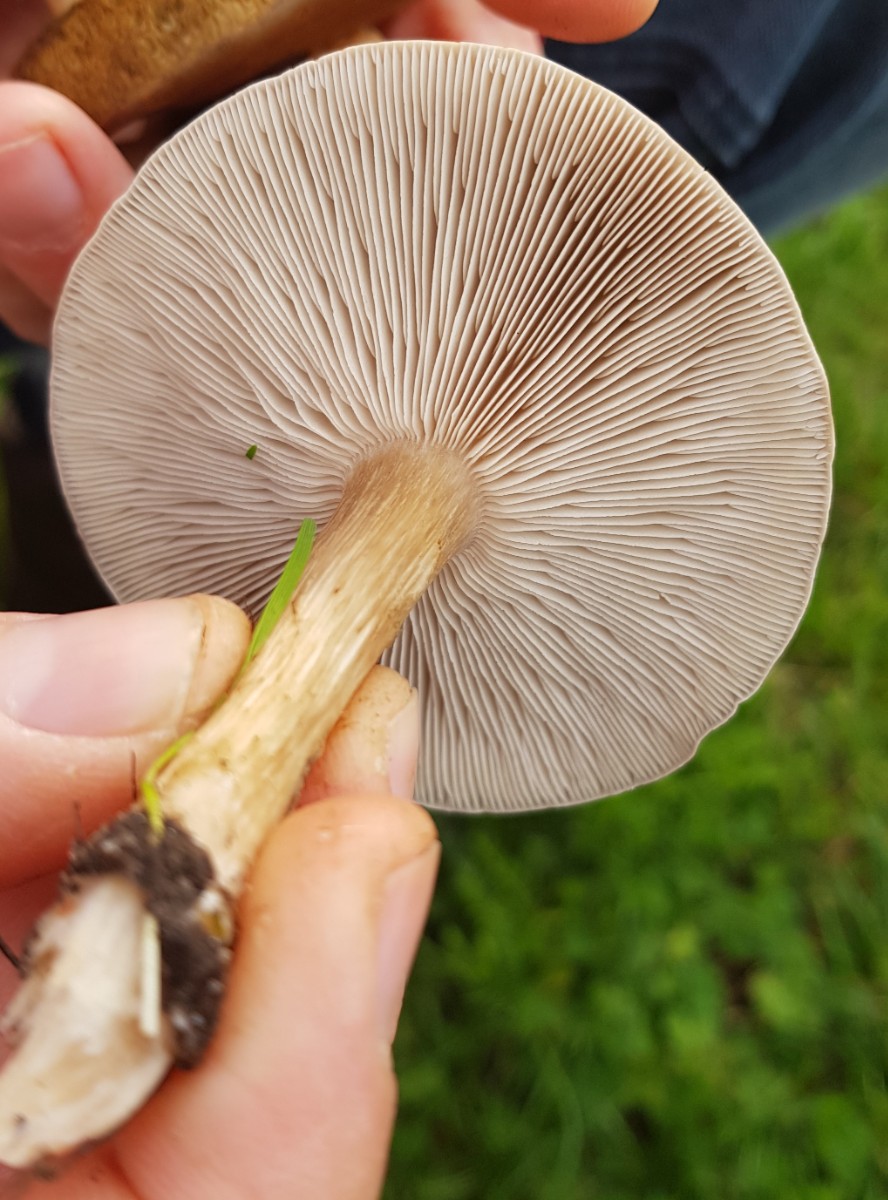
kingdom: Fungi
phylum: Basidiomycota
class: Agaricomycetes
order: Agaricales
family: Tricholomataceae
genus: Melanoleuca
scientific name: Melanoleuca
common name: munkehat
